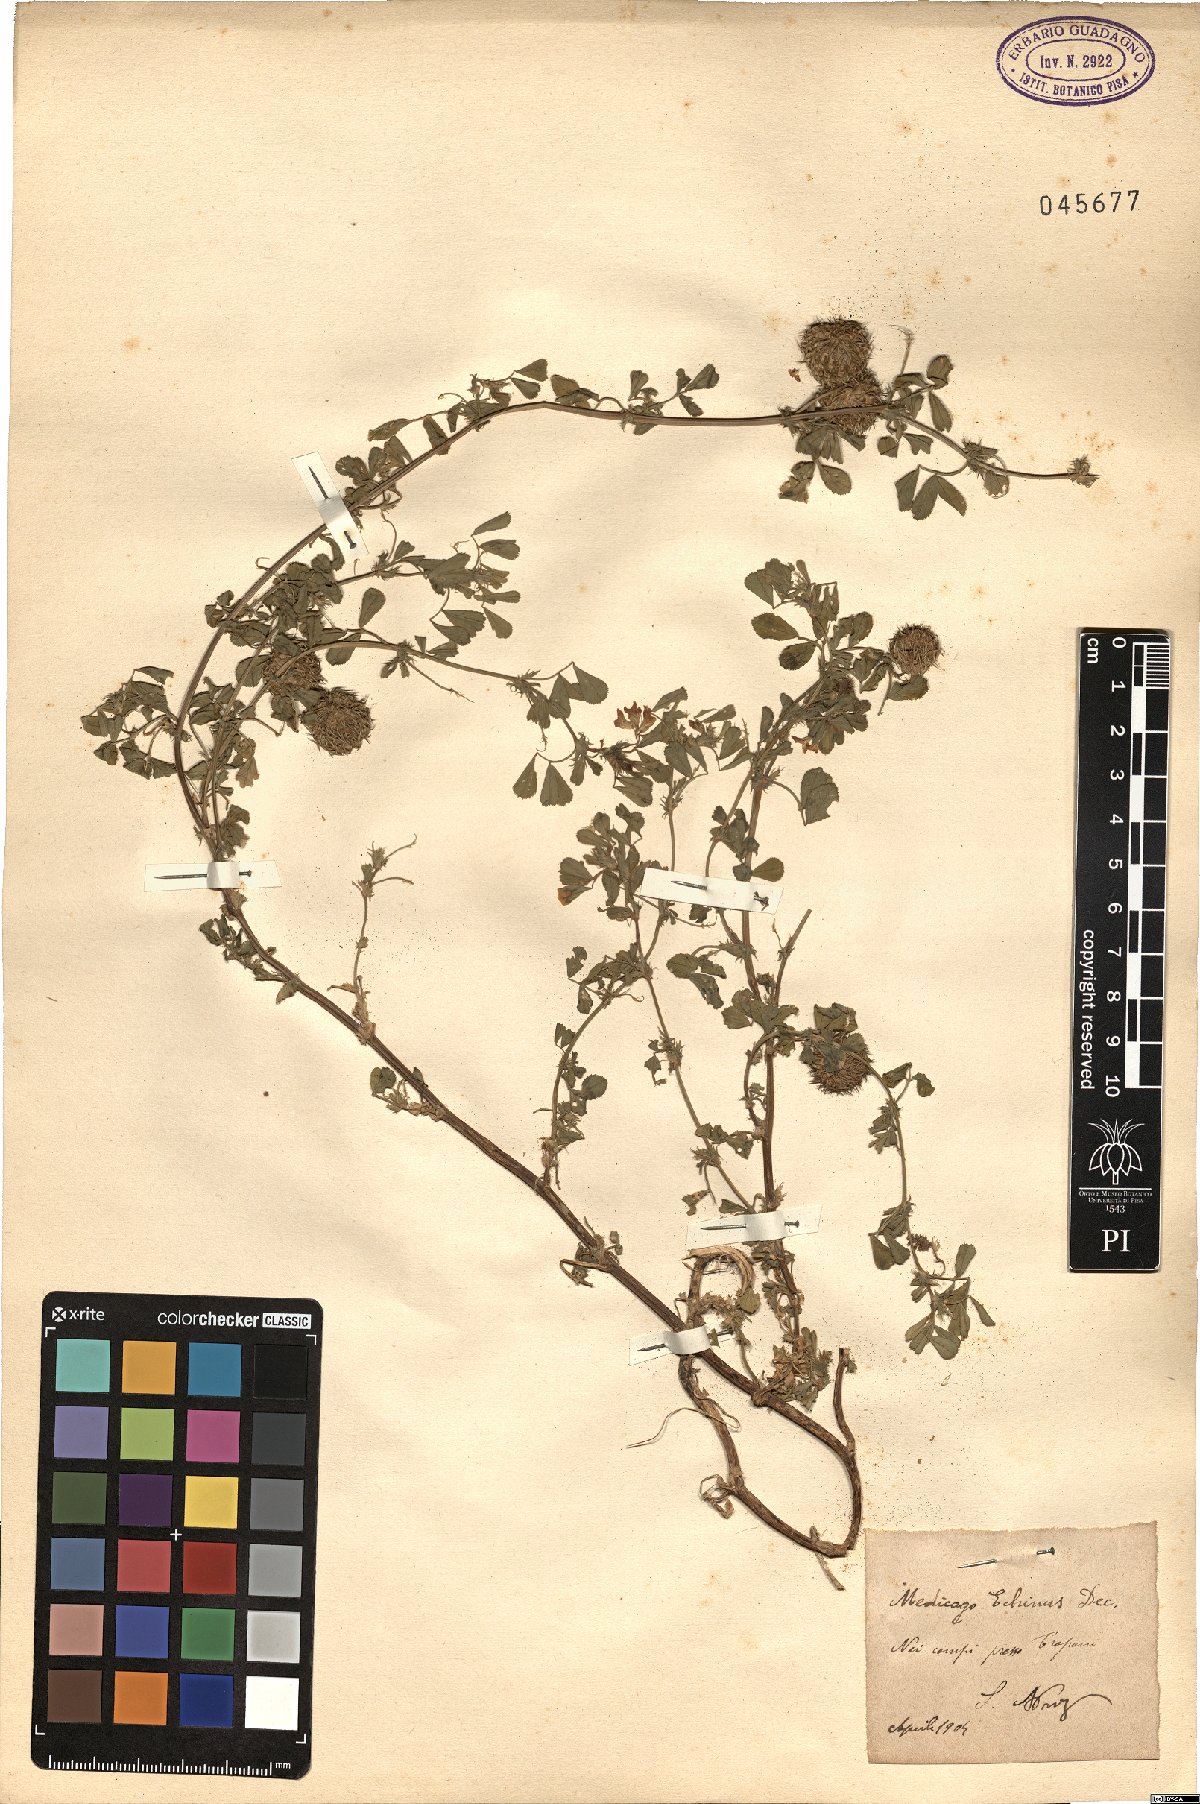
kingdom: Plantae
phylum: Tracheophyta
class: Magnoliopsida
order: Fabales
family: Fabaceae
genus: Medicago
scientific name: Medicago intertexta
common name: Hedgehog medick
